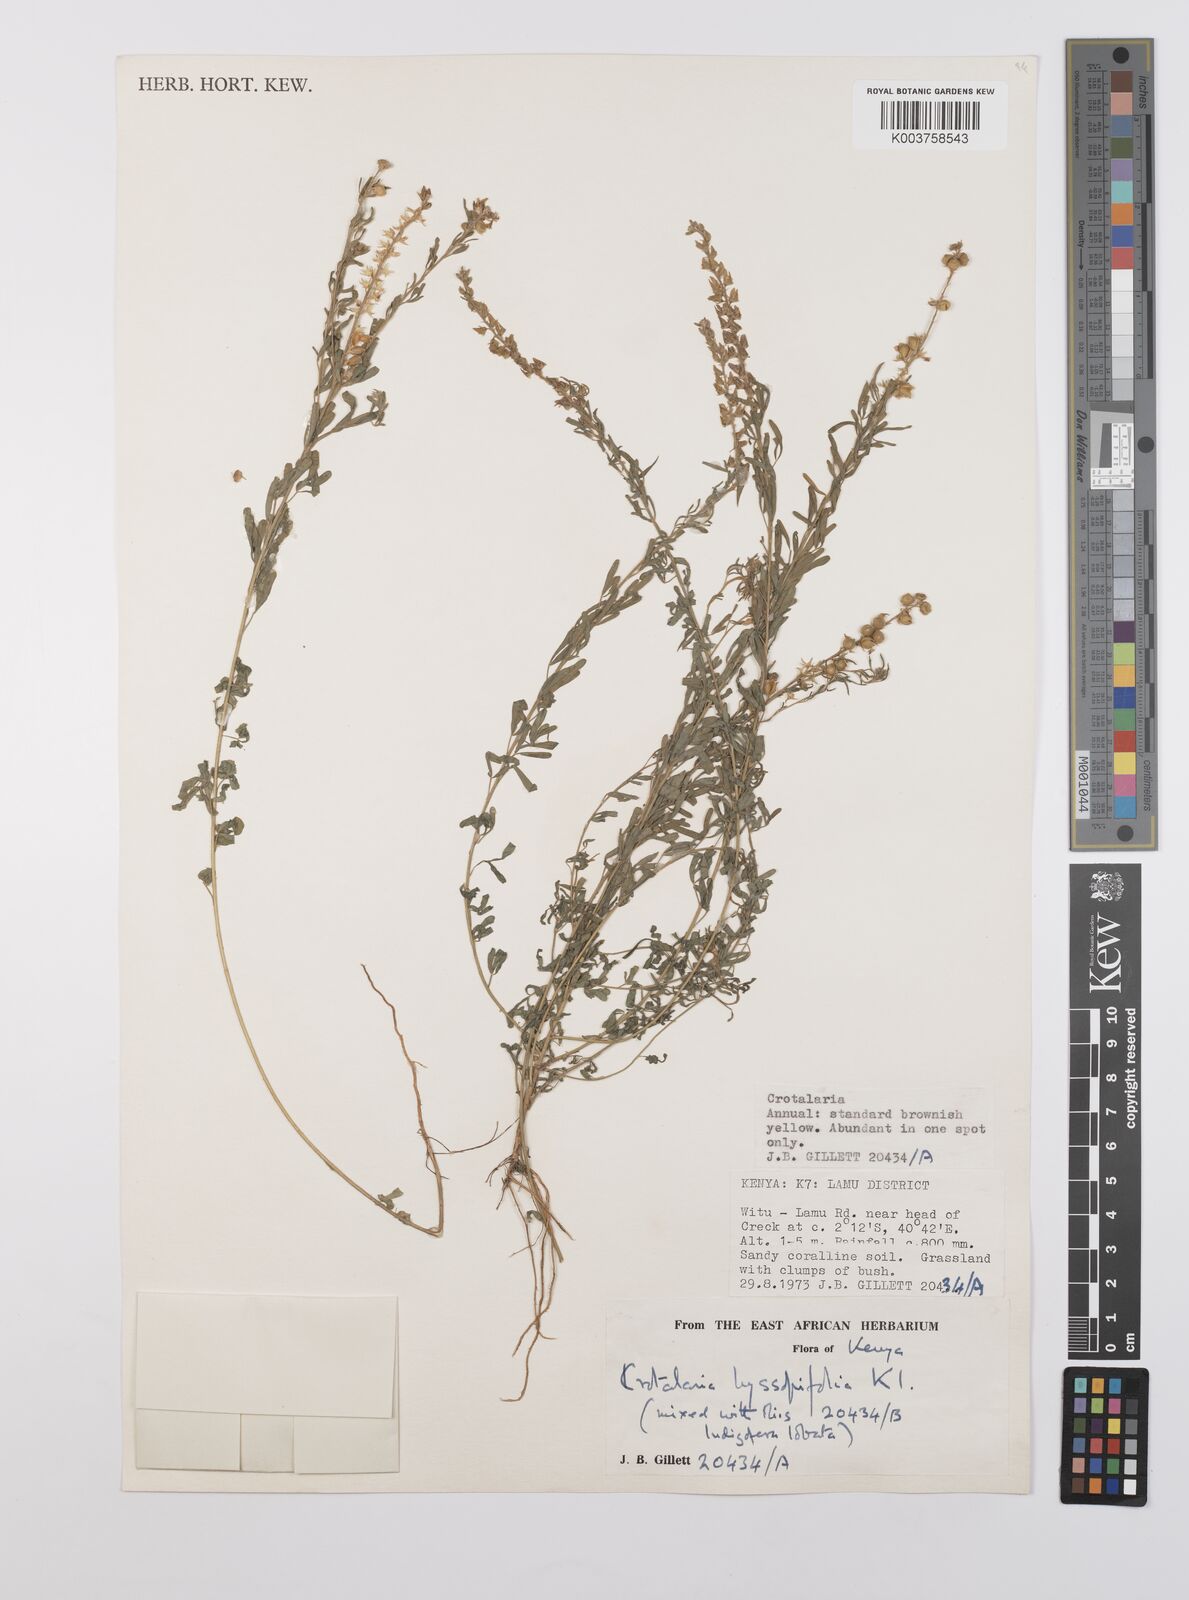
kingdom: Plantae
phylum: Tracheophyta
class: Magnoliopsida
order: Fabales
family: Fabaceae
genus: Crotalaria
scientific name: Crotalaria hyssopifolia
